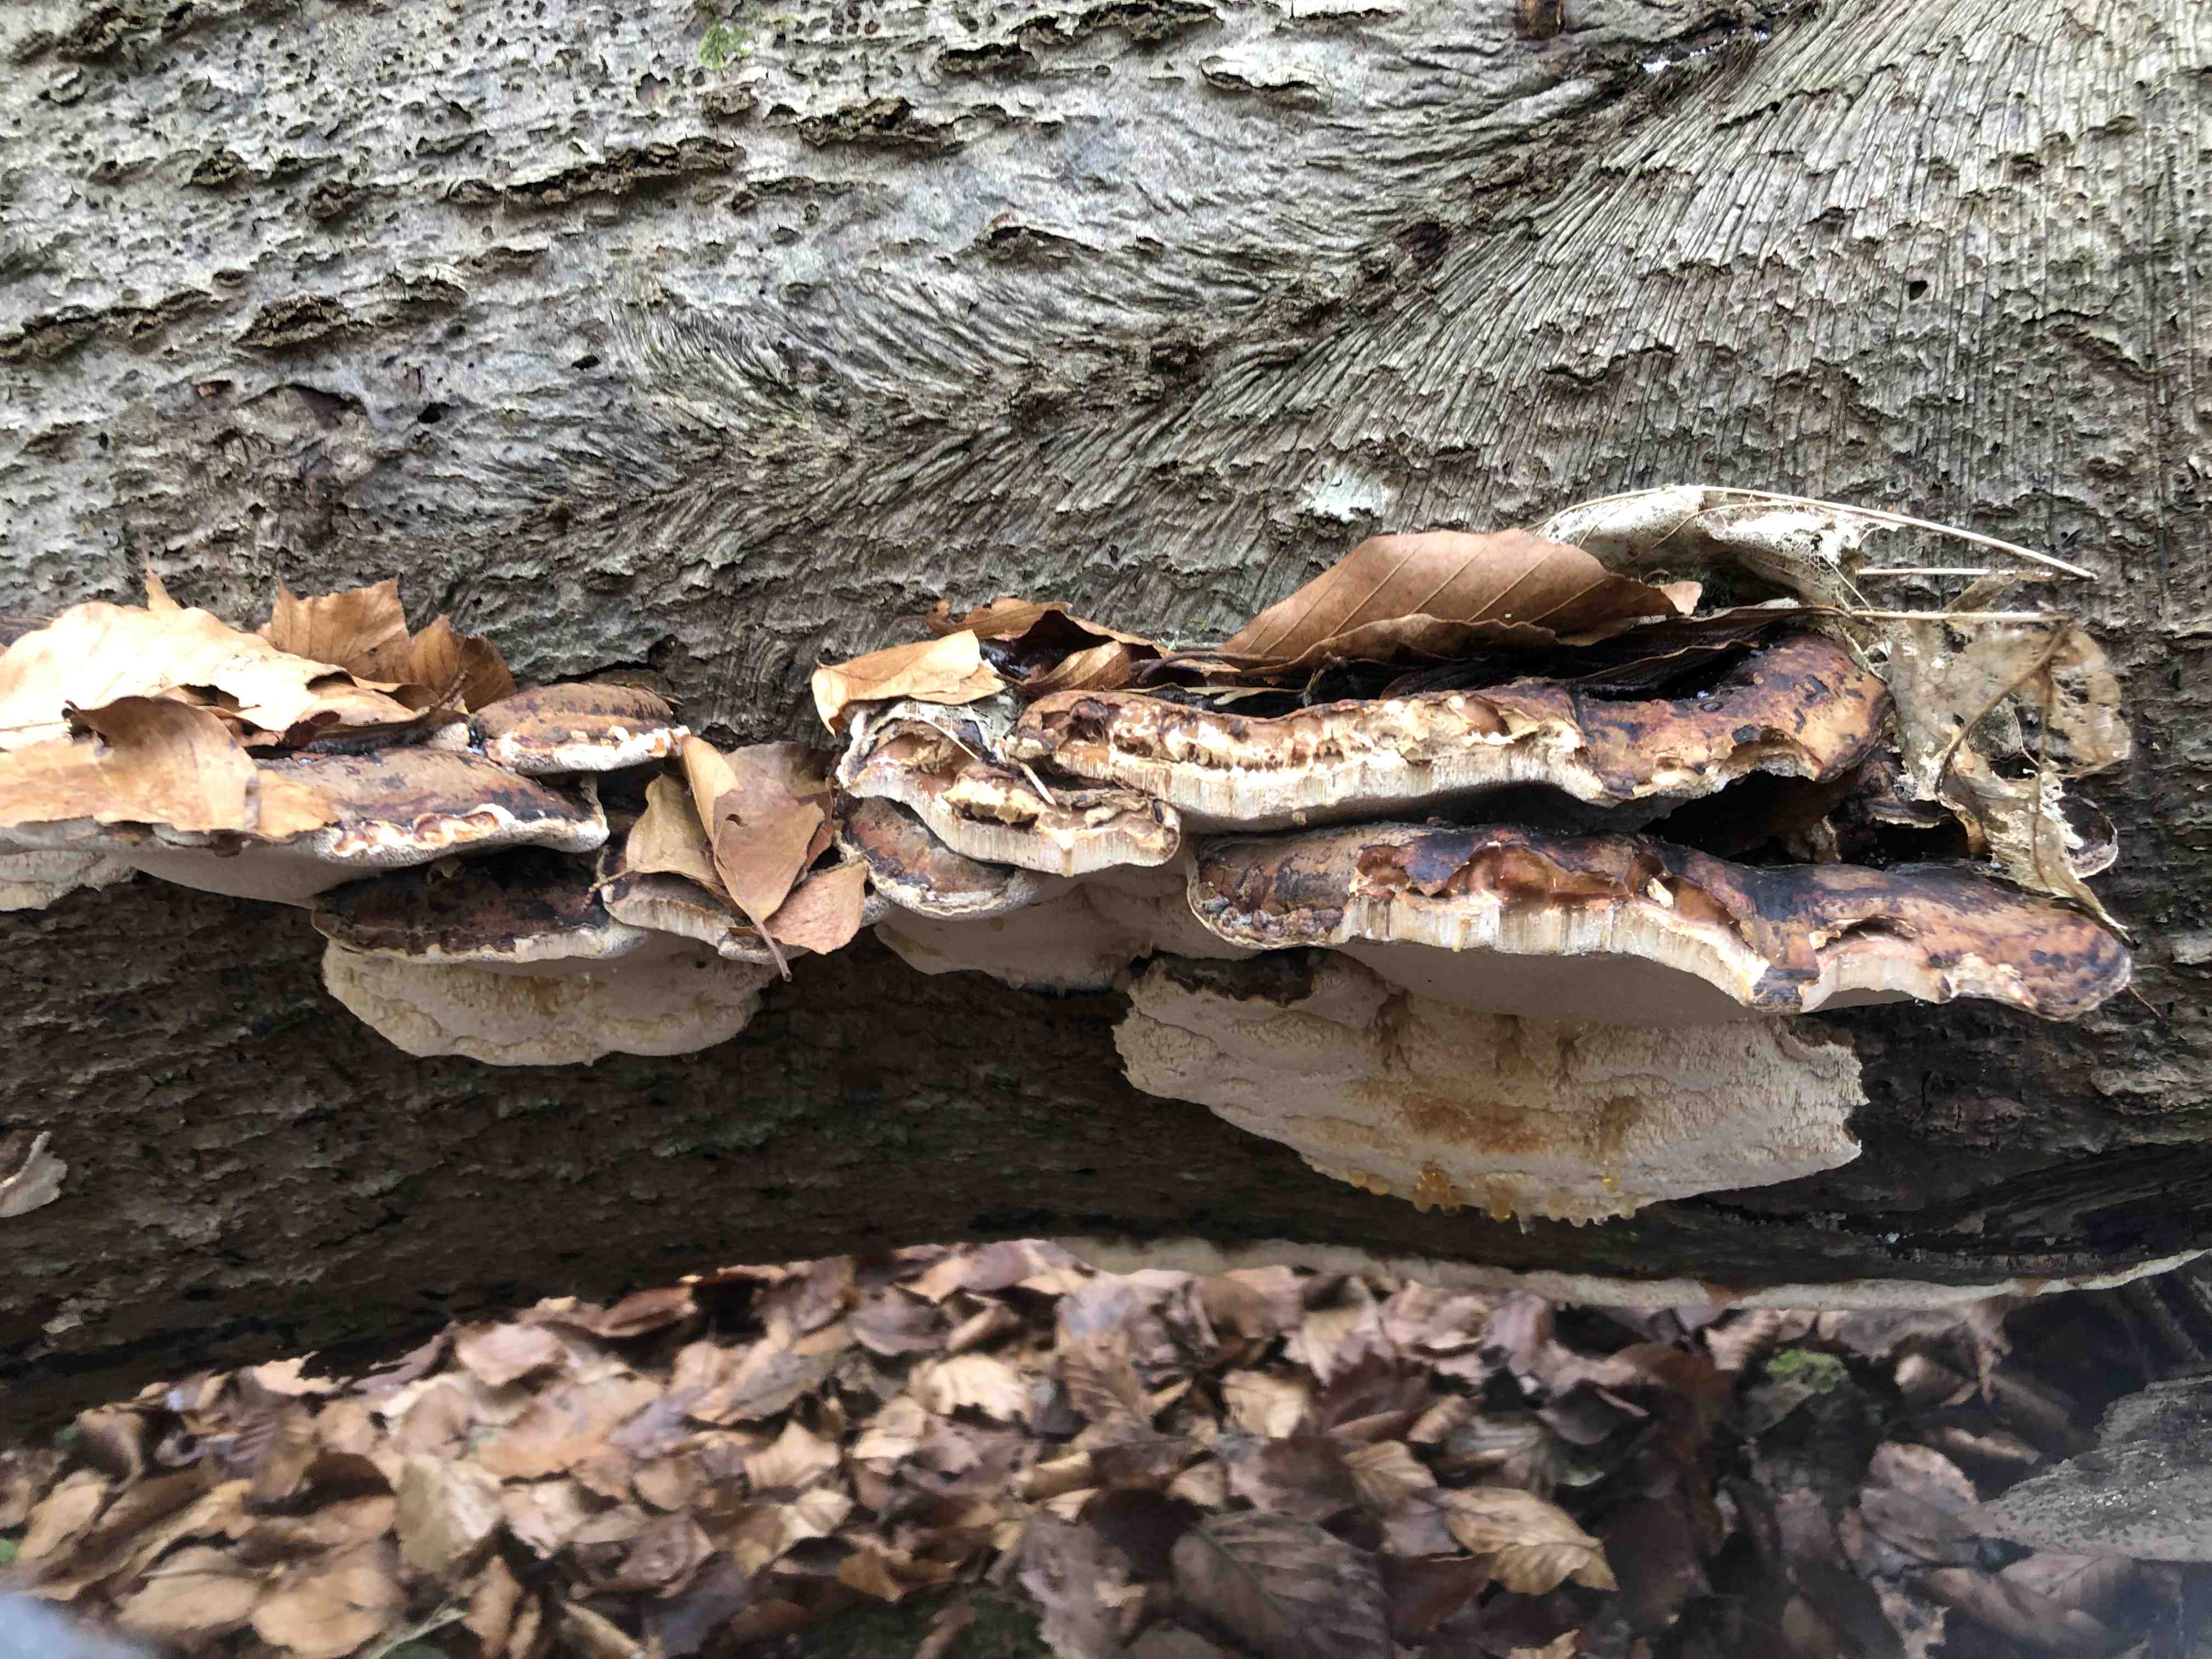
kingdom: Fungi
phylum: Basidiomycota
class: Agaricomycetes
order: Polyporales
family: Ischnodermataceae
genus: Ischnoderma
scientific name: Ischnoderma resinosum
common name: løv-tjæreporesvamp
